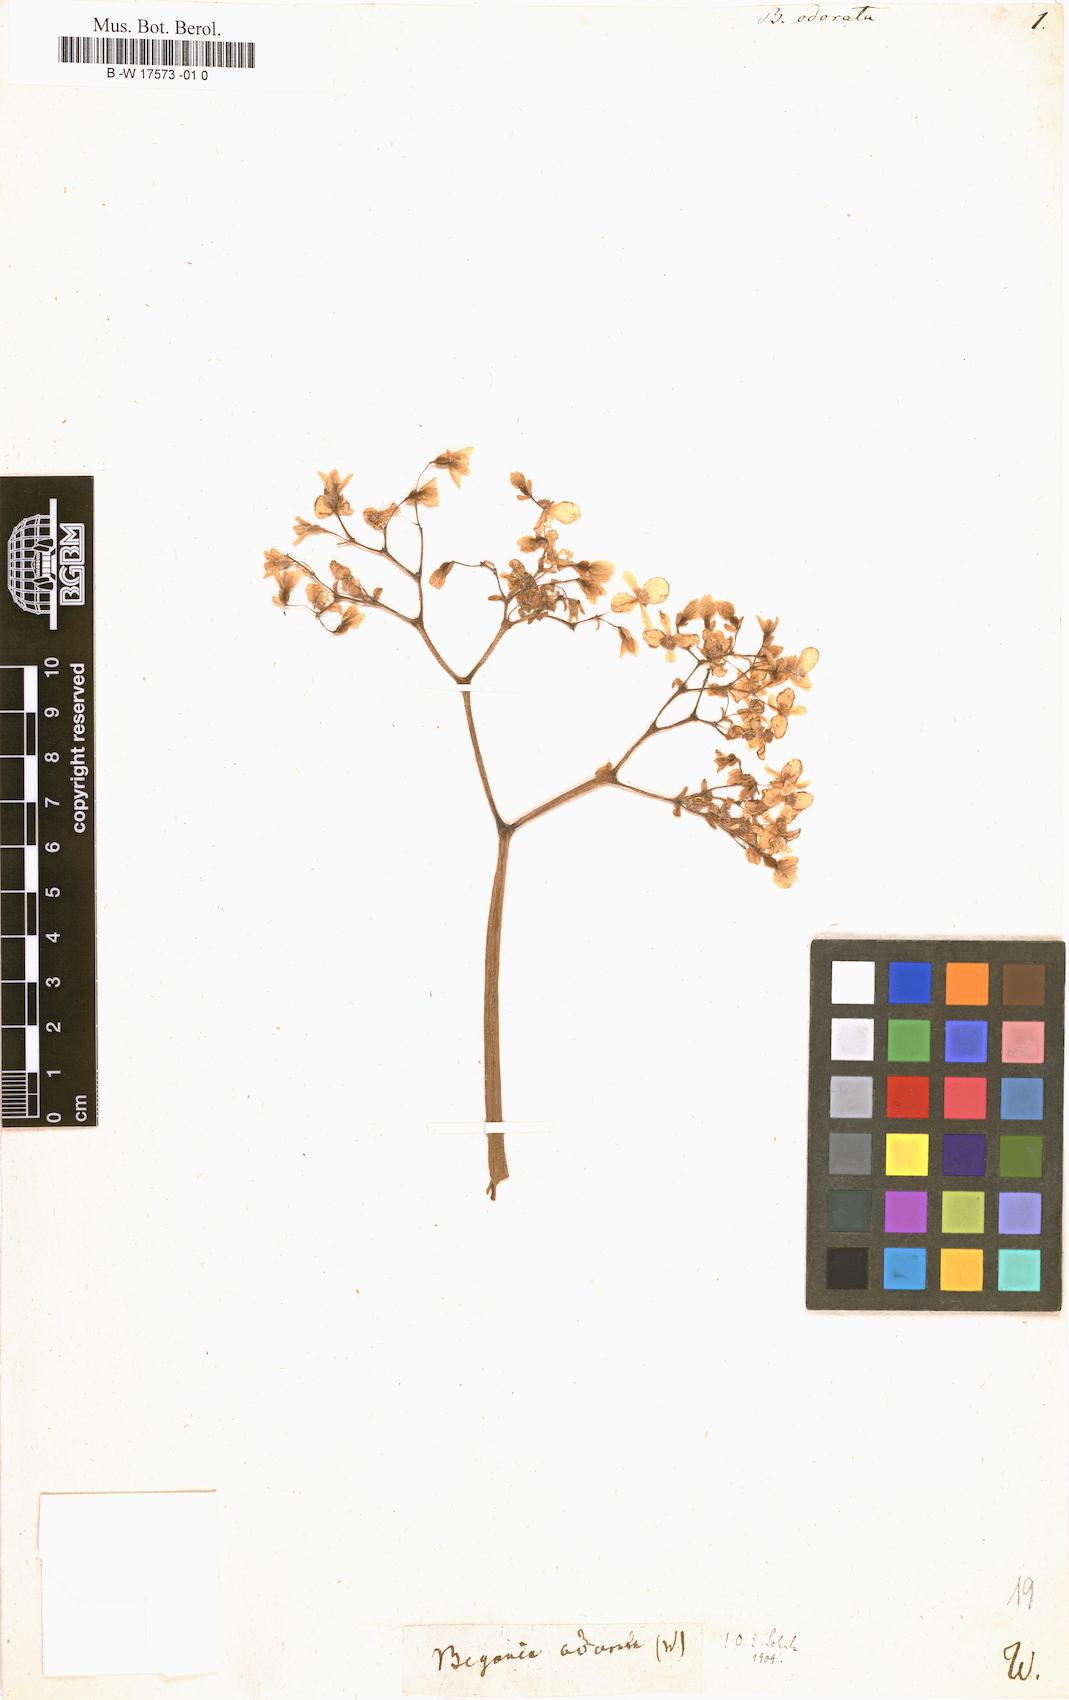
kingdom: Plantae
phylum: Tracheophyta
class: Magnoliopsida
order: Cucurbitales
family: Begoniaceae
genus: Begonia
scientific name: Begonia odorata
